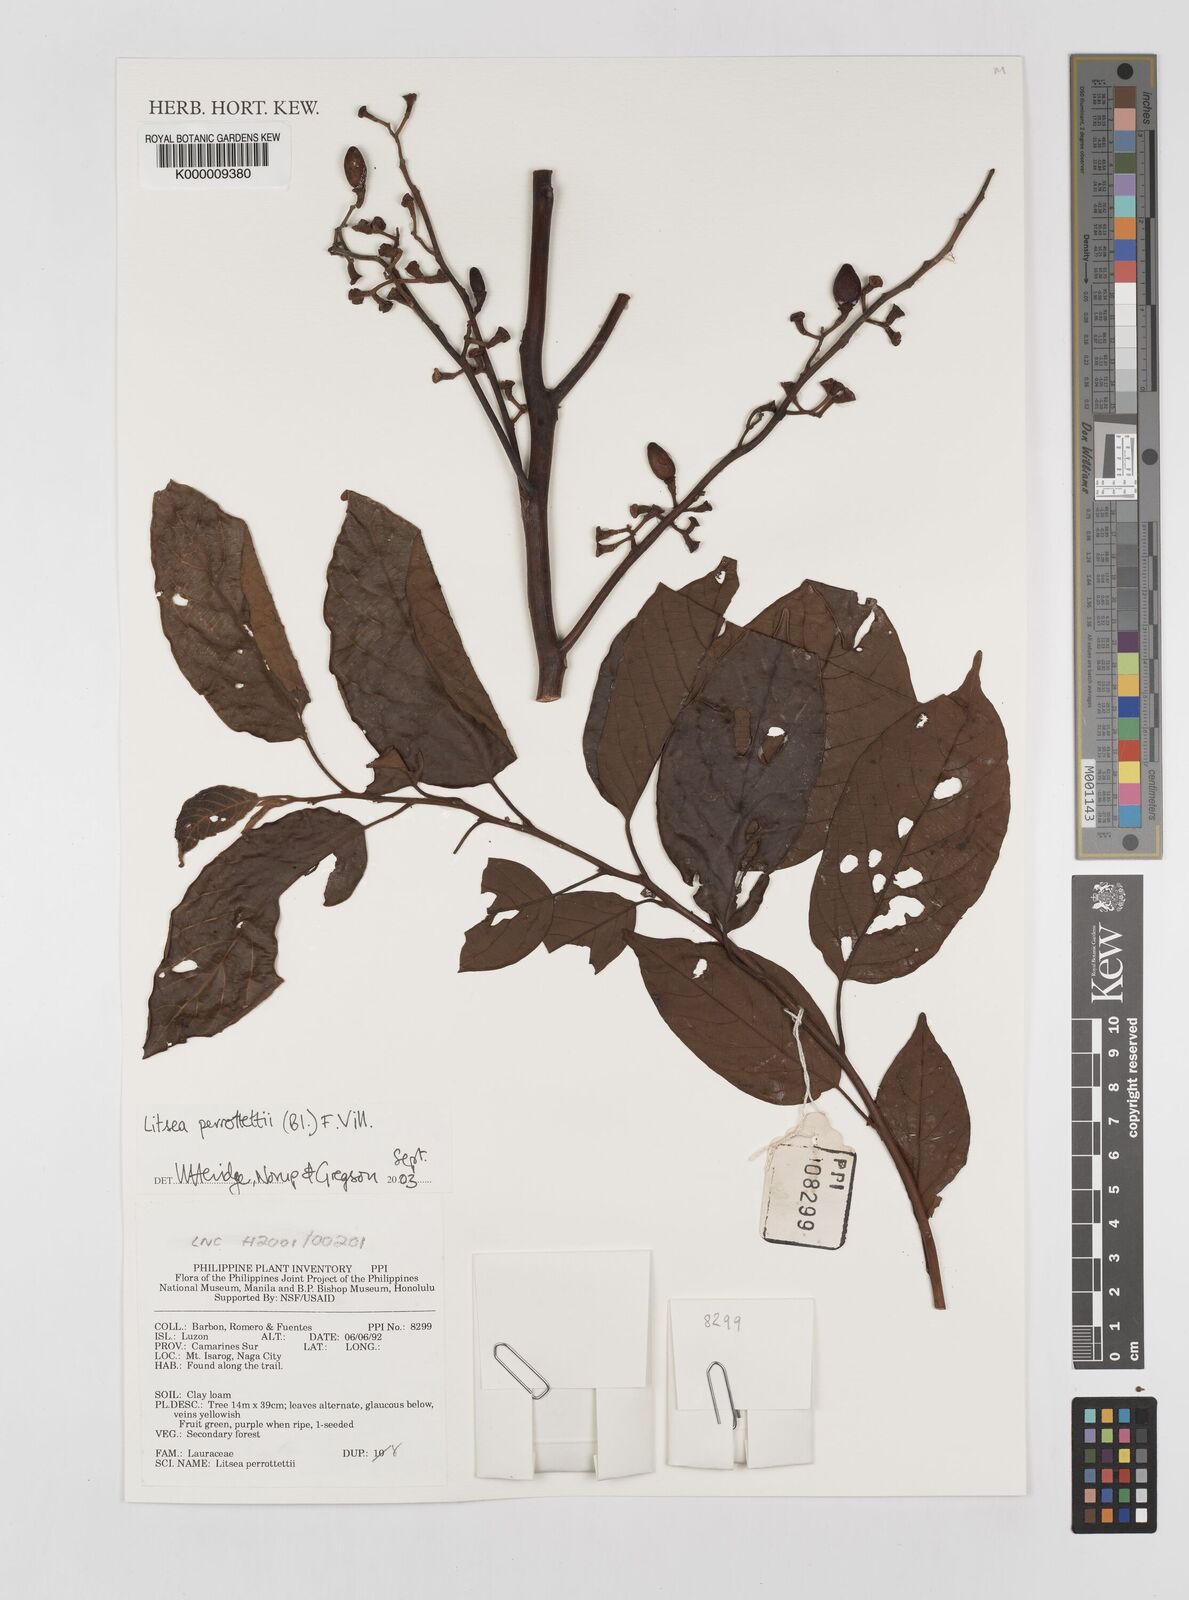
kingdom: Plantae
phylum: Tracheophyta
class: Magnoliopsida
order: Laurales
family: Lauraceae
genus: Litsea
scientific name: Litsea cordata
